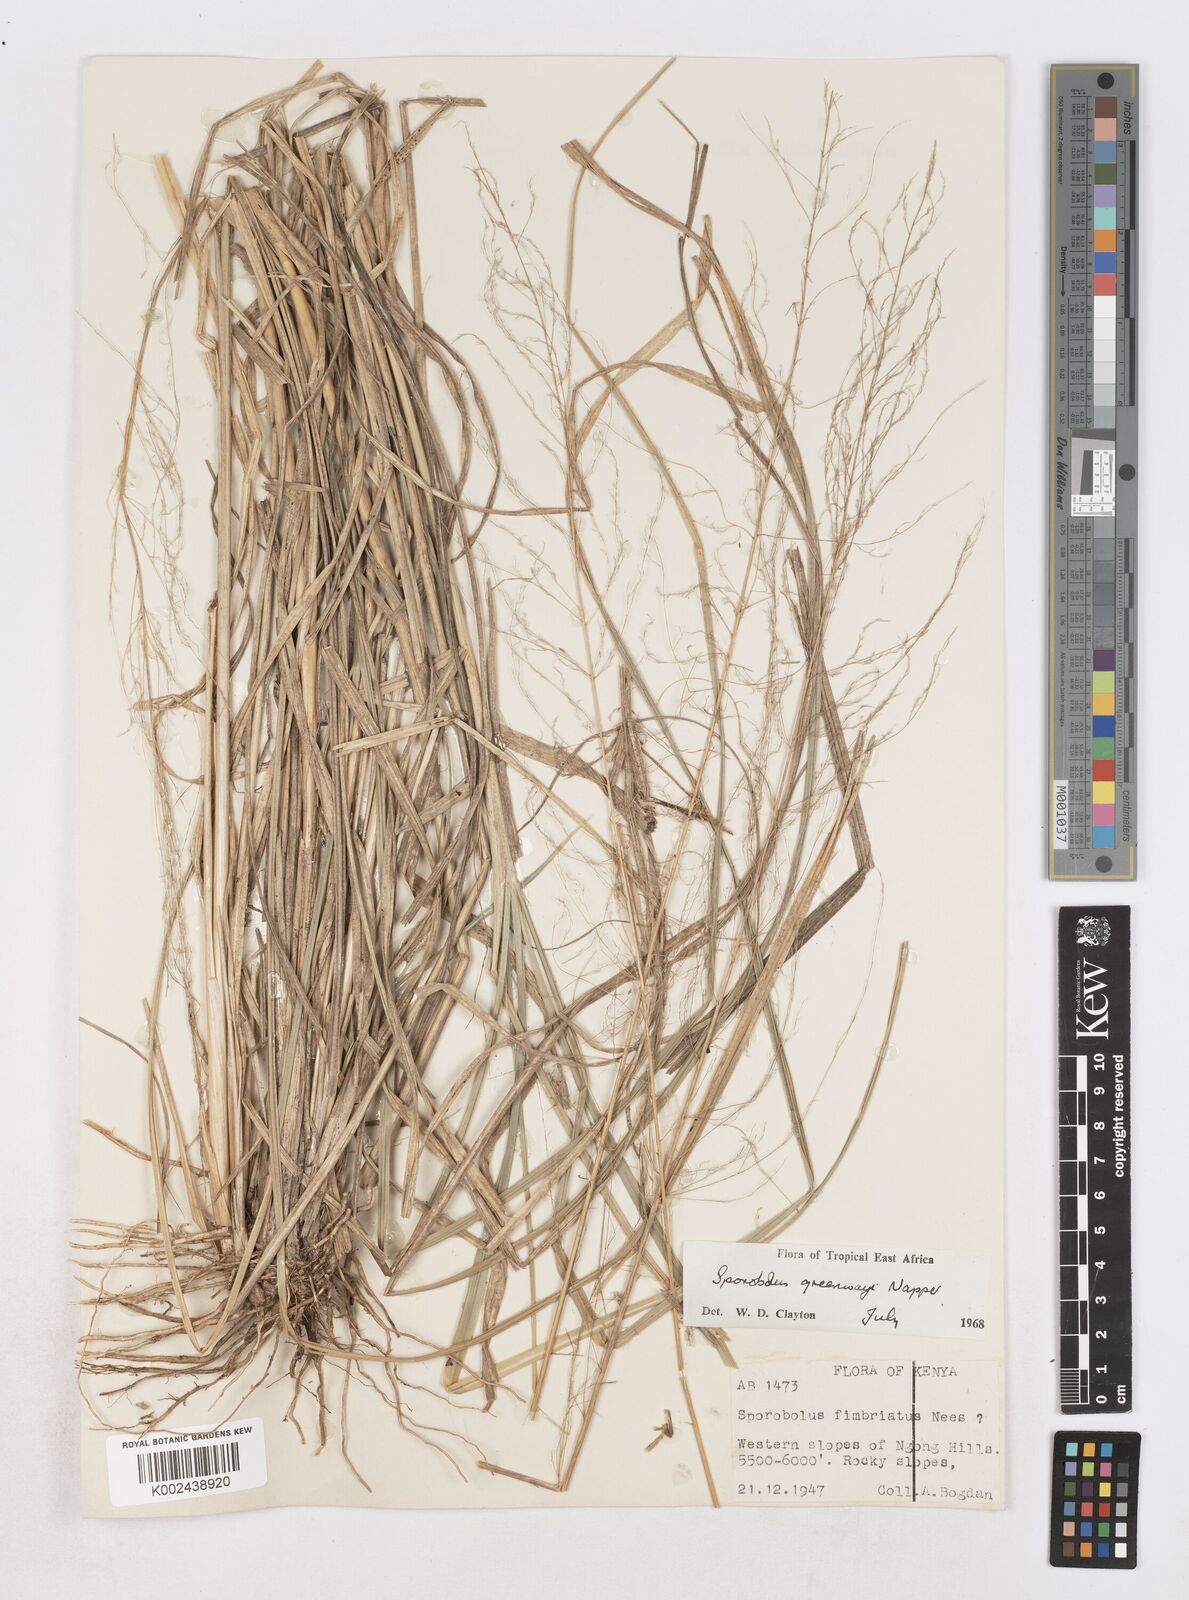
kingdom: Plantae
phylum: Tracheophyta
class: Liliopsida
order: Poales
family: Poaceae
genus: Sporobolus
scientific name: Sporobolus macranthelus
